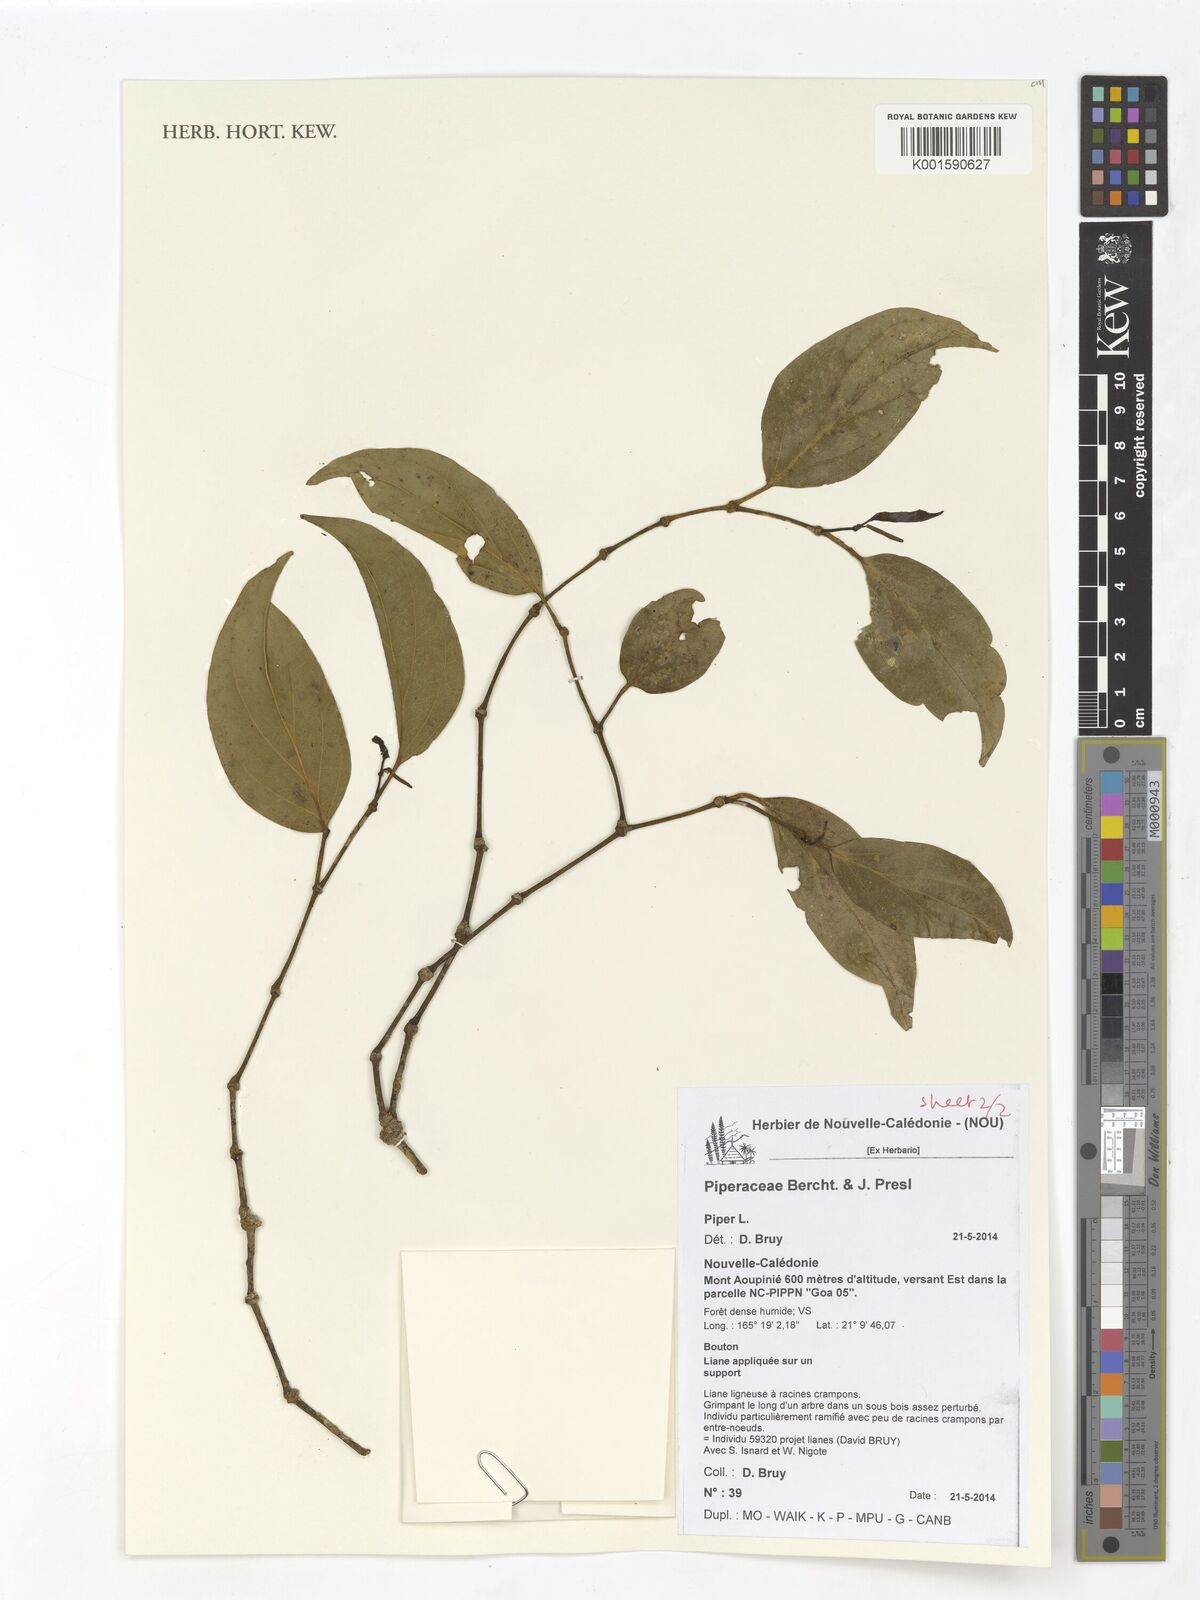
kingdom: Plantae
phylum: Tracheophyta
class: Magnoliopsida
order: Piperales
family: Piperaceae
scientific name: Piperaceae
